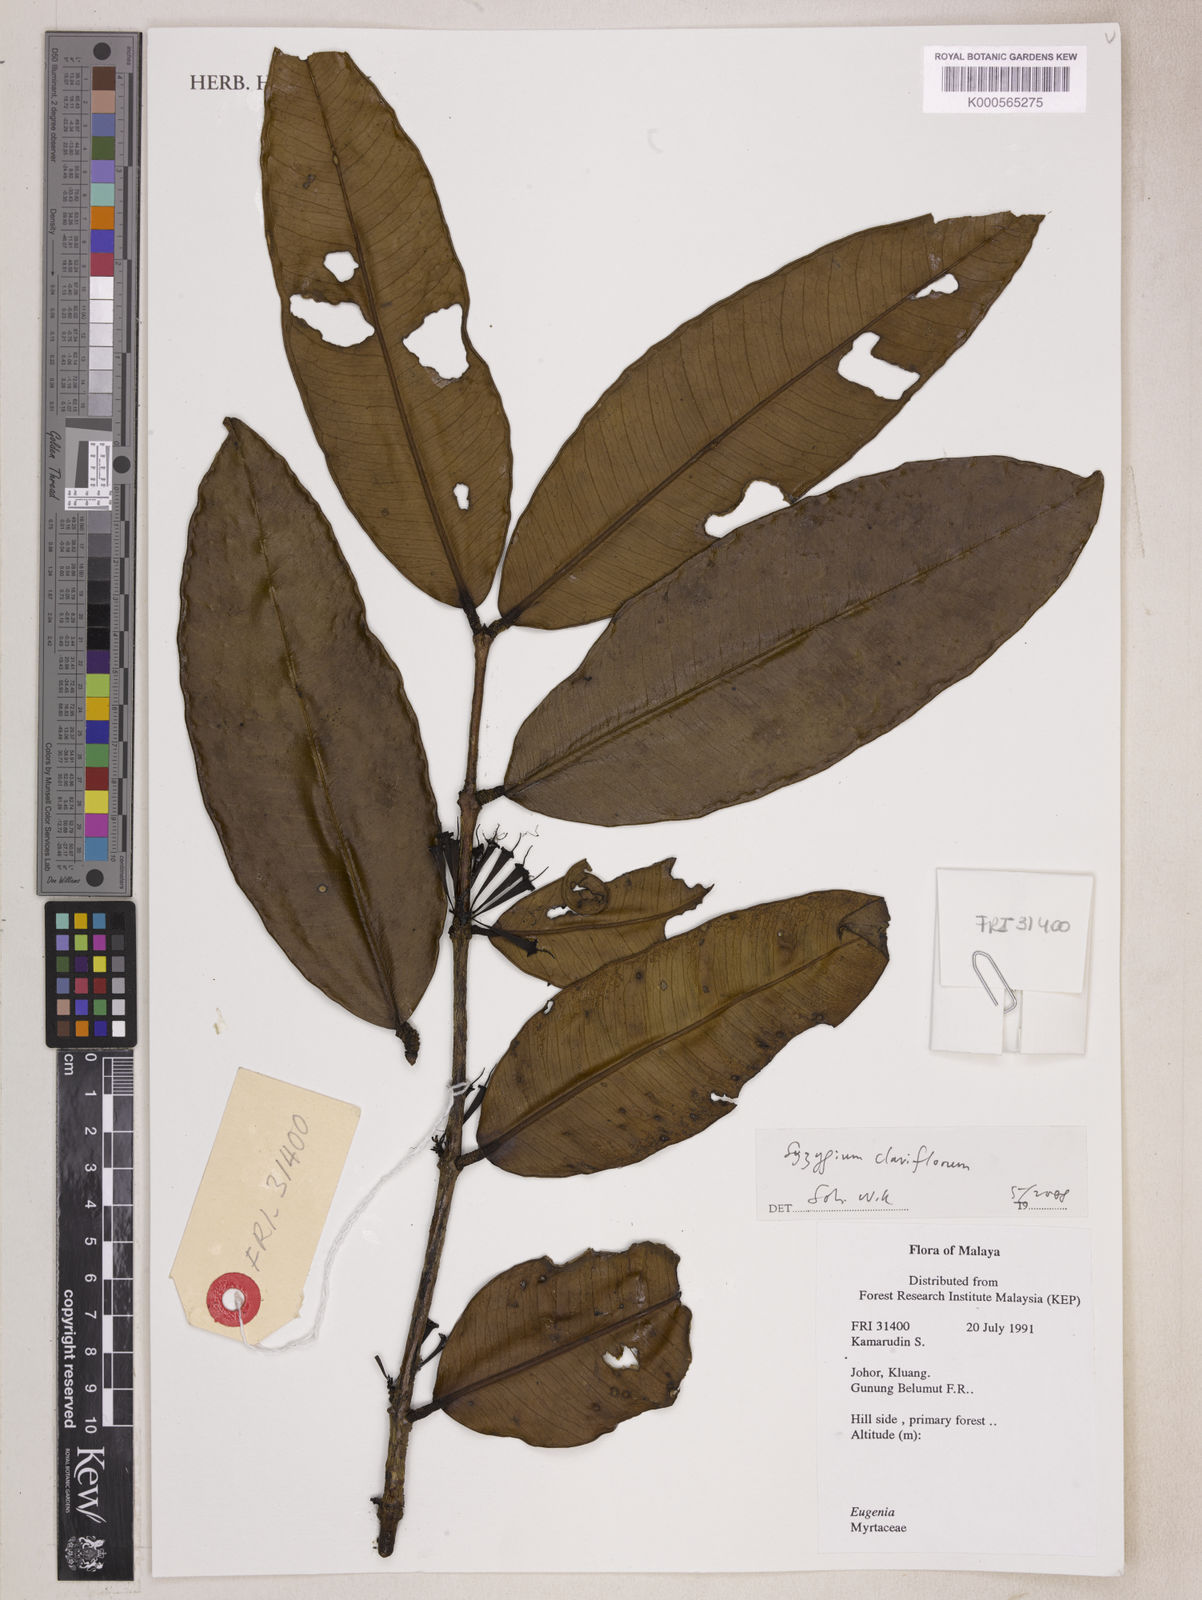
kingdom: Plantae
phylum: Tracheophyta
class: Magnoliopsida
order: Myrtales
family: Myrtaceae
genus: Syzygium
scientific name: Syzygium claviflorum
